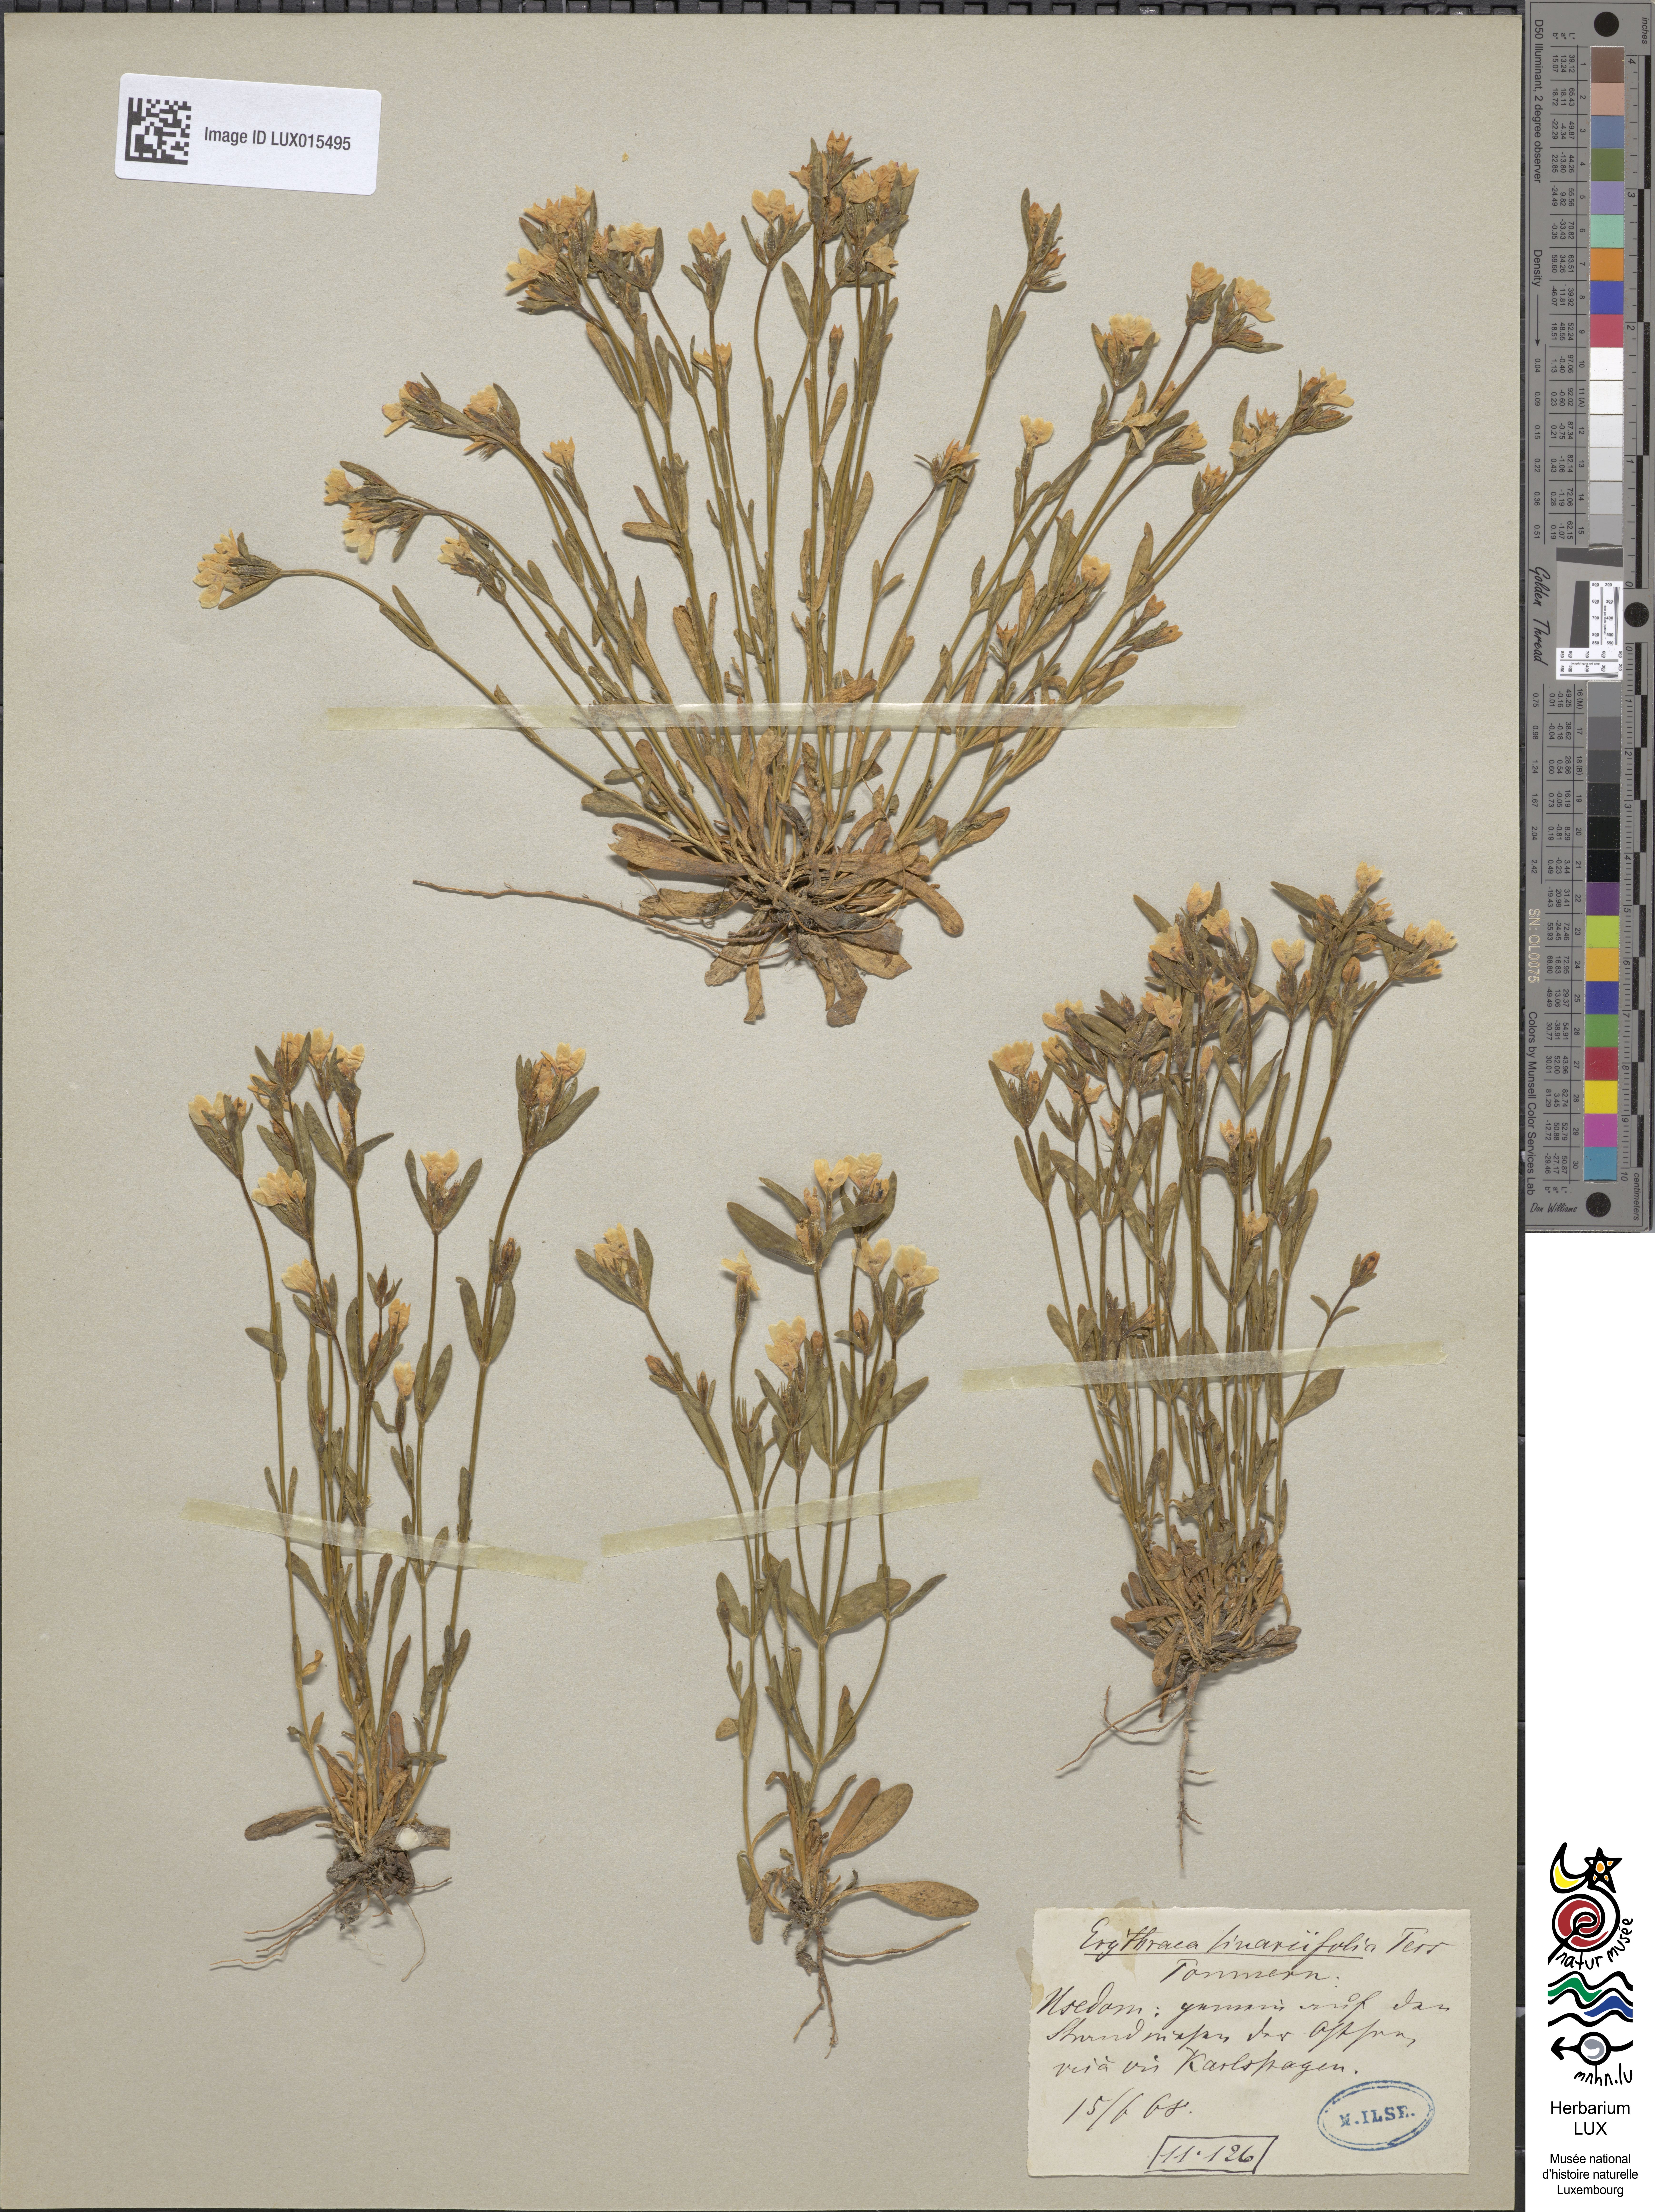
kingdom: Plantae
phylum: Tracheophyta
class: Magnoliopsida
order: Gentianales
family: Gentianaceae
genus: Centaurium
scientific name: Centaurium littorale
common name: Seaside centaury
